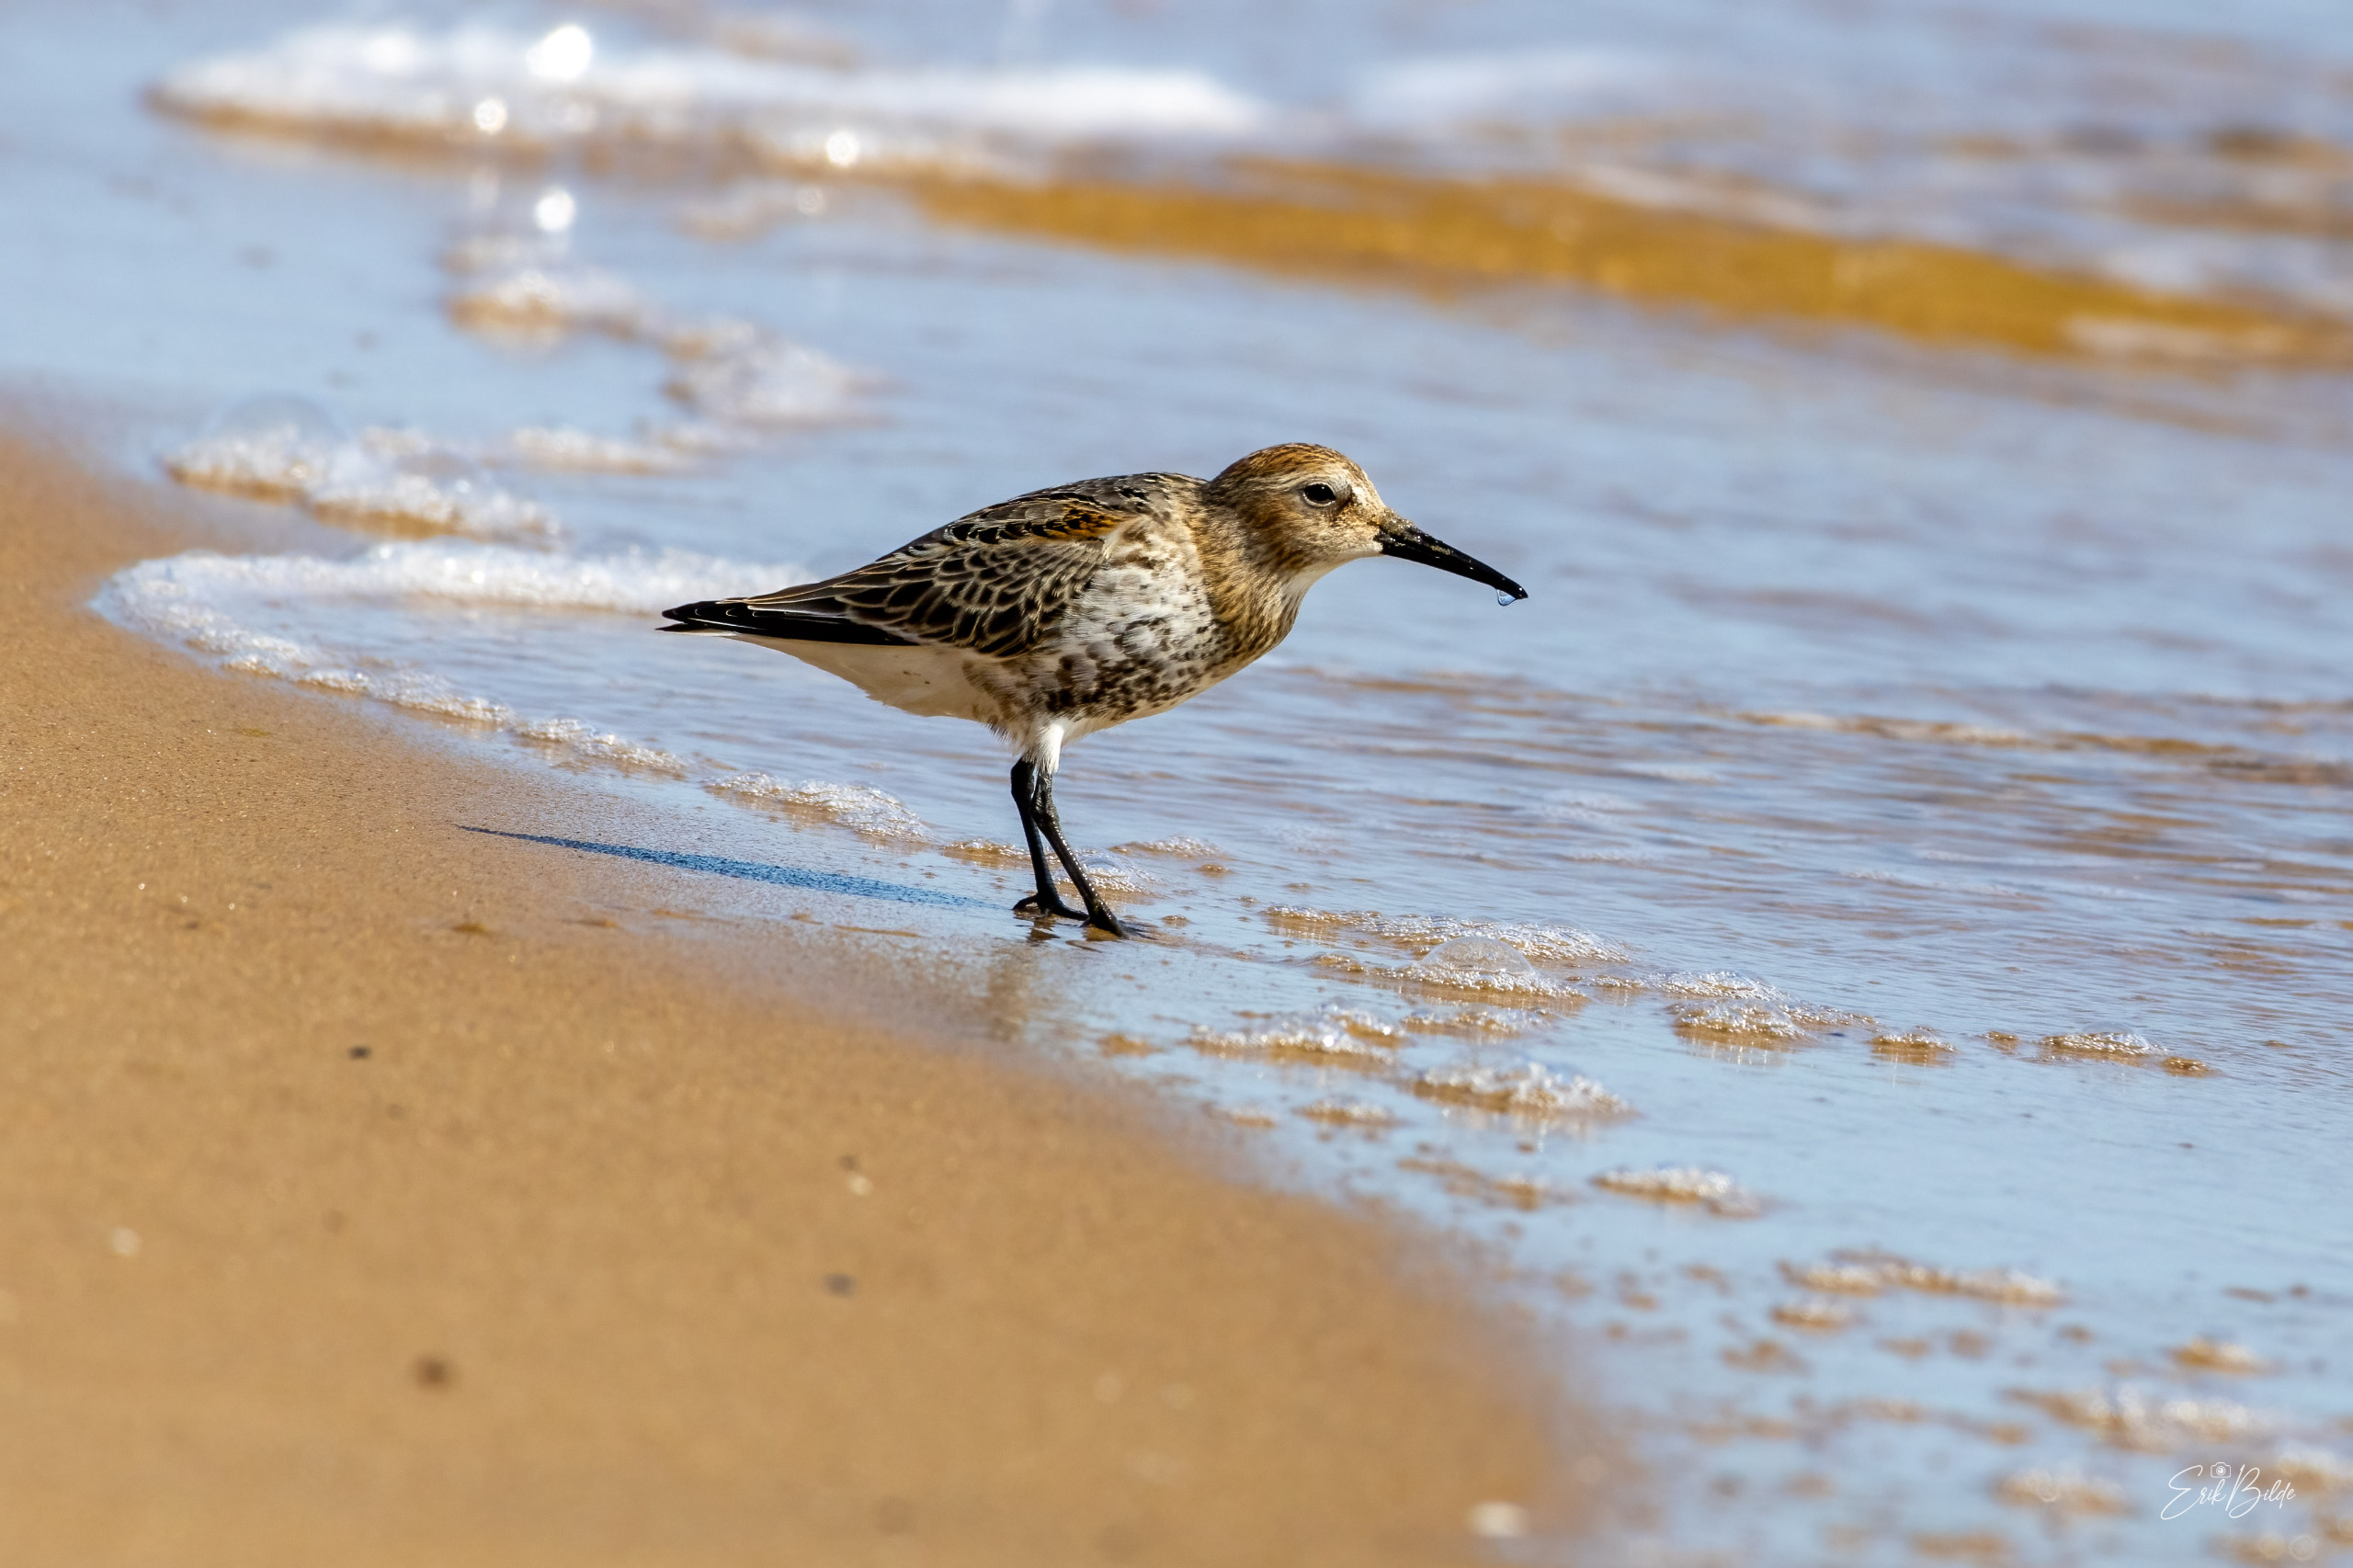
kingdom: Animalia
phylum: Chordata
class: Aves
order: Charadriiformes
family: Scolopacidae
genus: Calidris
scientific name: Calidris alpina
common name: Almindelig ryle
